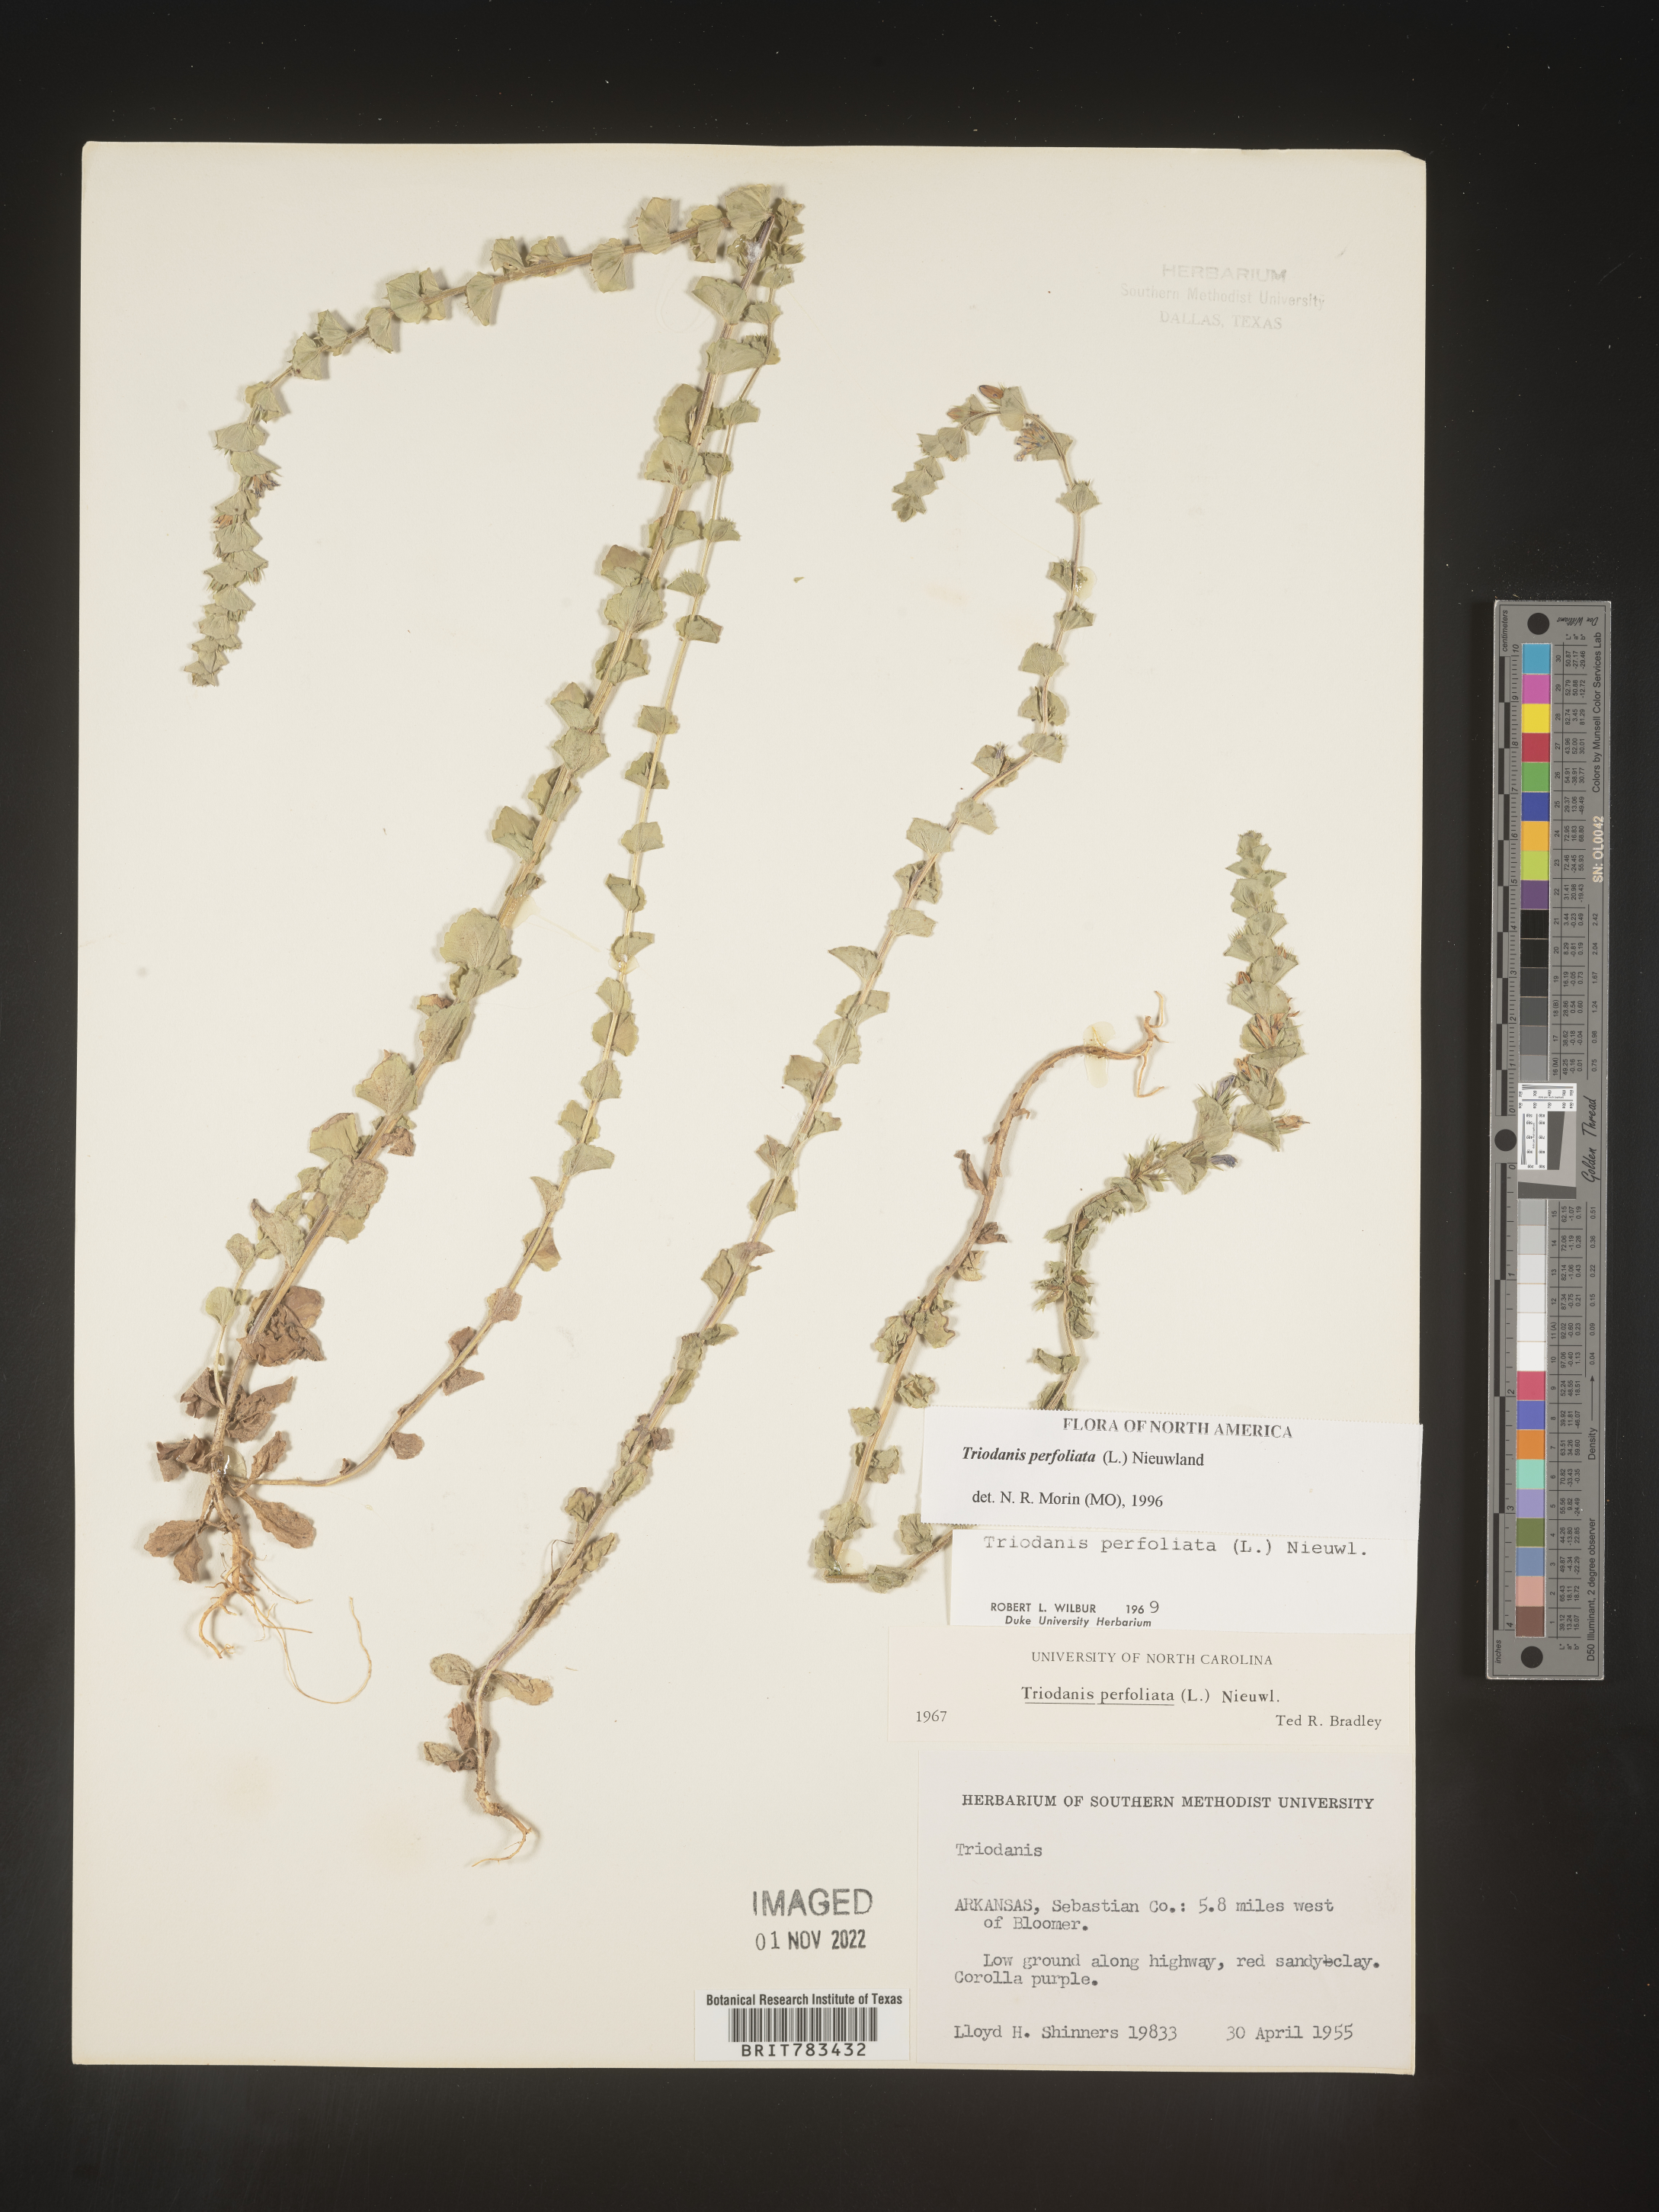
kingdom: Plantae
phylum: Tracheophyta
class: Magnoliopsida
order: Asterales
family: Campanulaceae
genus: Triodanis
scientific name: Triodanis perfoliata
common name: Clasping venus' looking-glass
